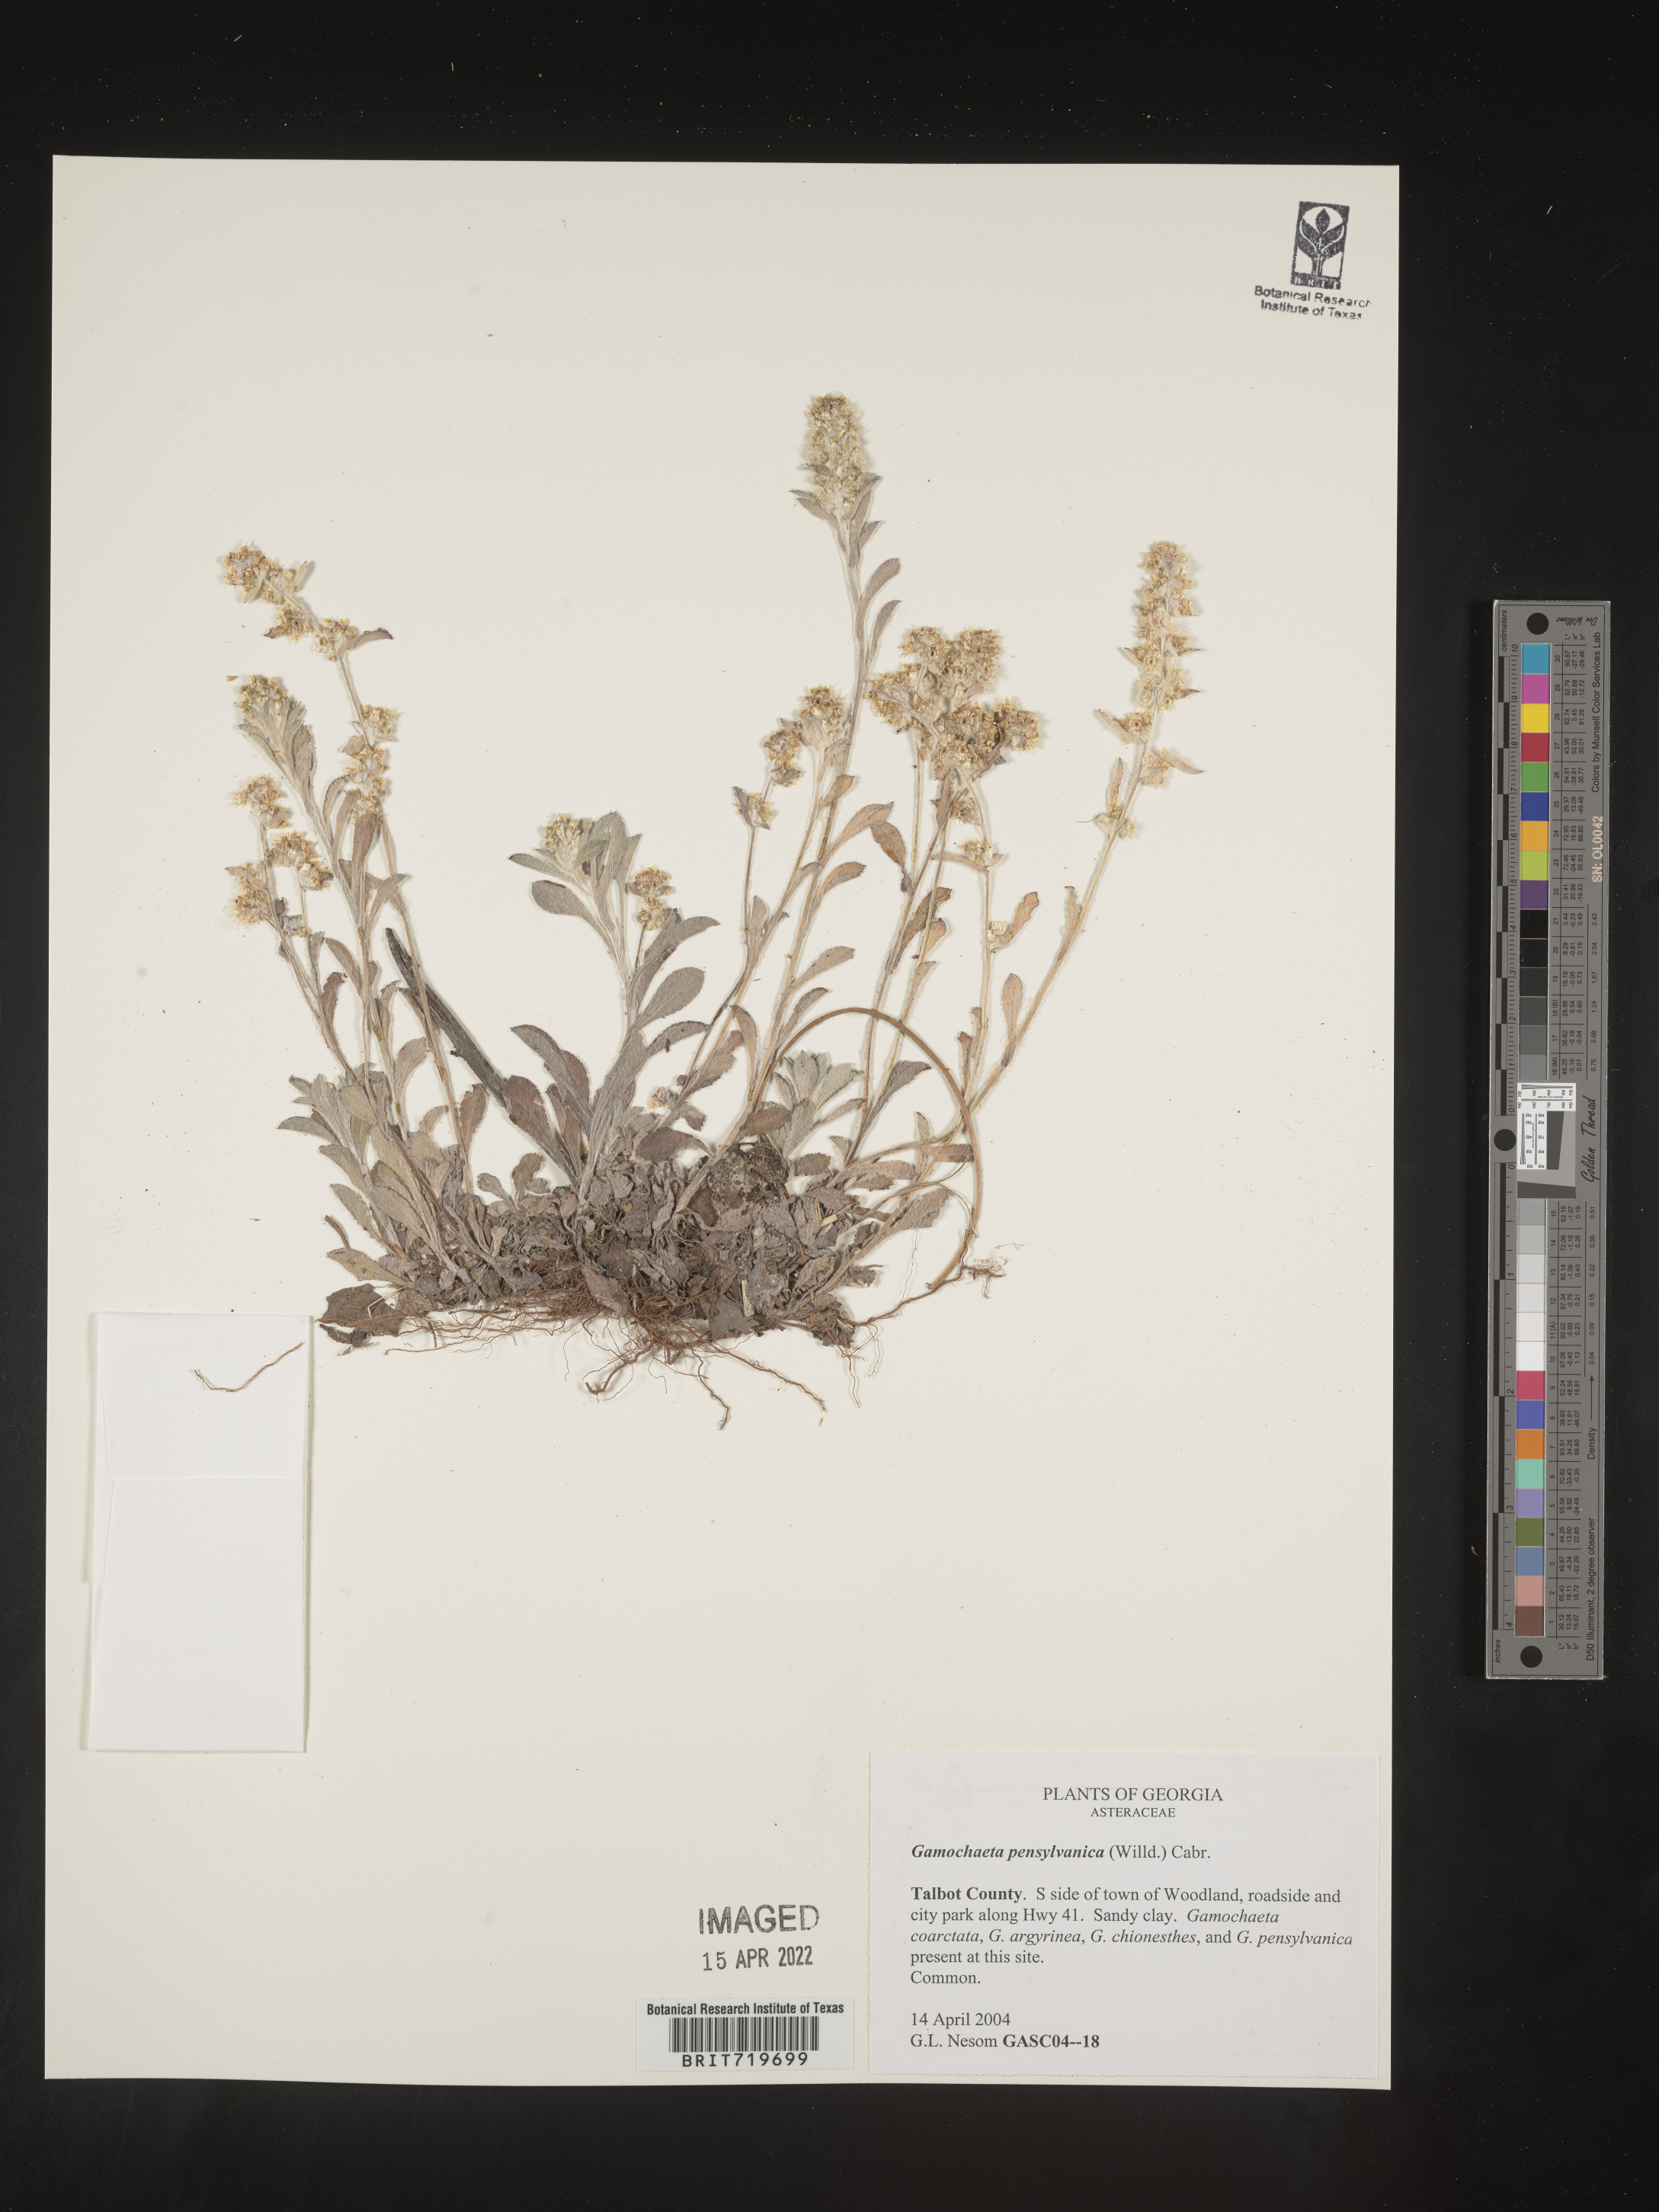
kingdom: Plantae
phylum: Tracheophyta
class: Magnoliopsida
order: Asterales
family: Asteraceae
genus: Gamochaeta
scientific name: Gamochaeta pensylvanica
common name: Pennsylvania everlasting
